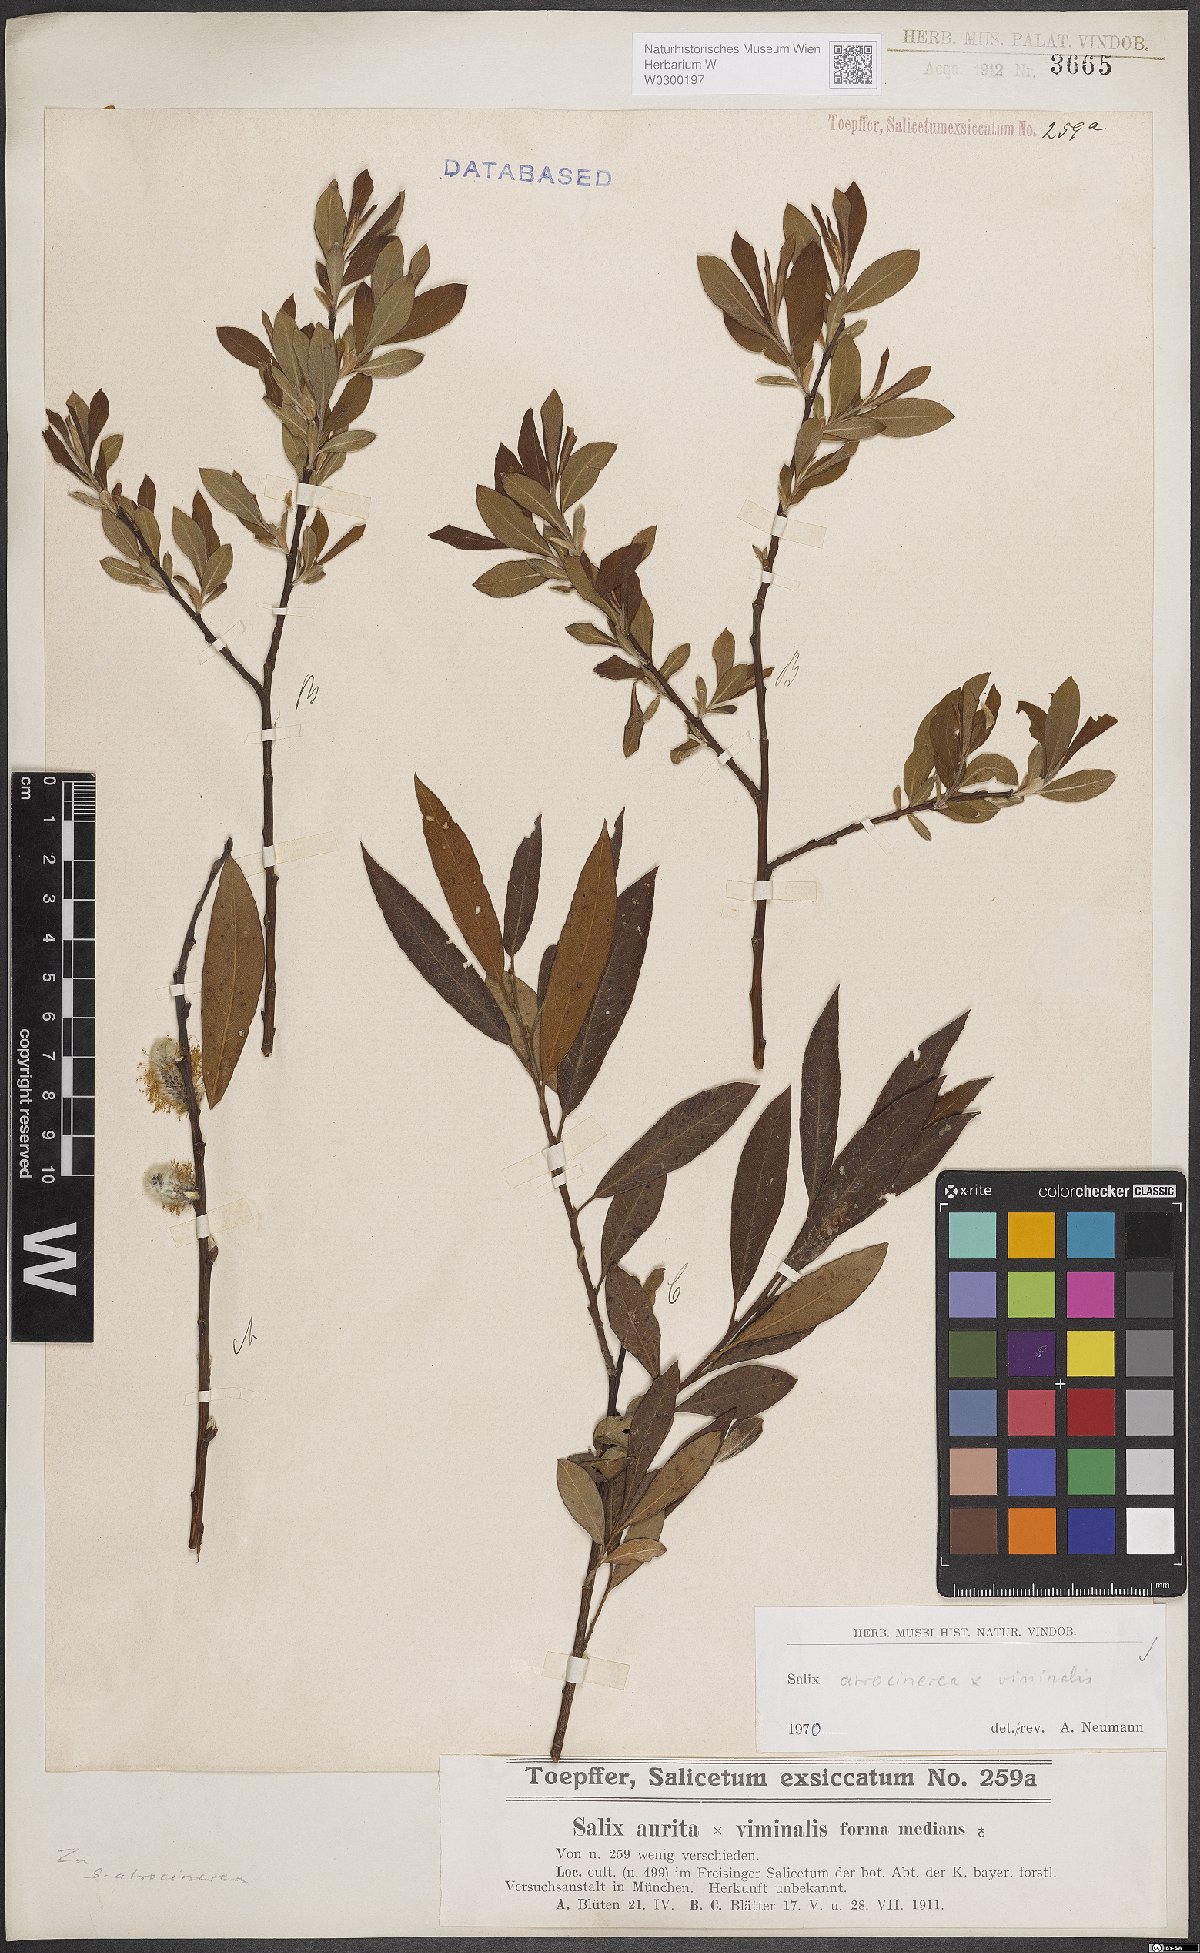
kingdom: Plantae
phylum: Tracheophyta
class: Magnoliopsida
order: Malpighiales
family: Salicaceae
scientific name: Salicaceae
